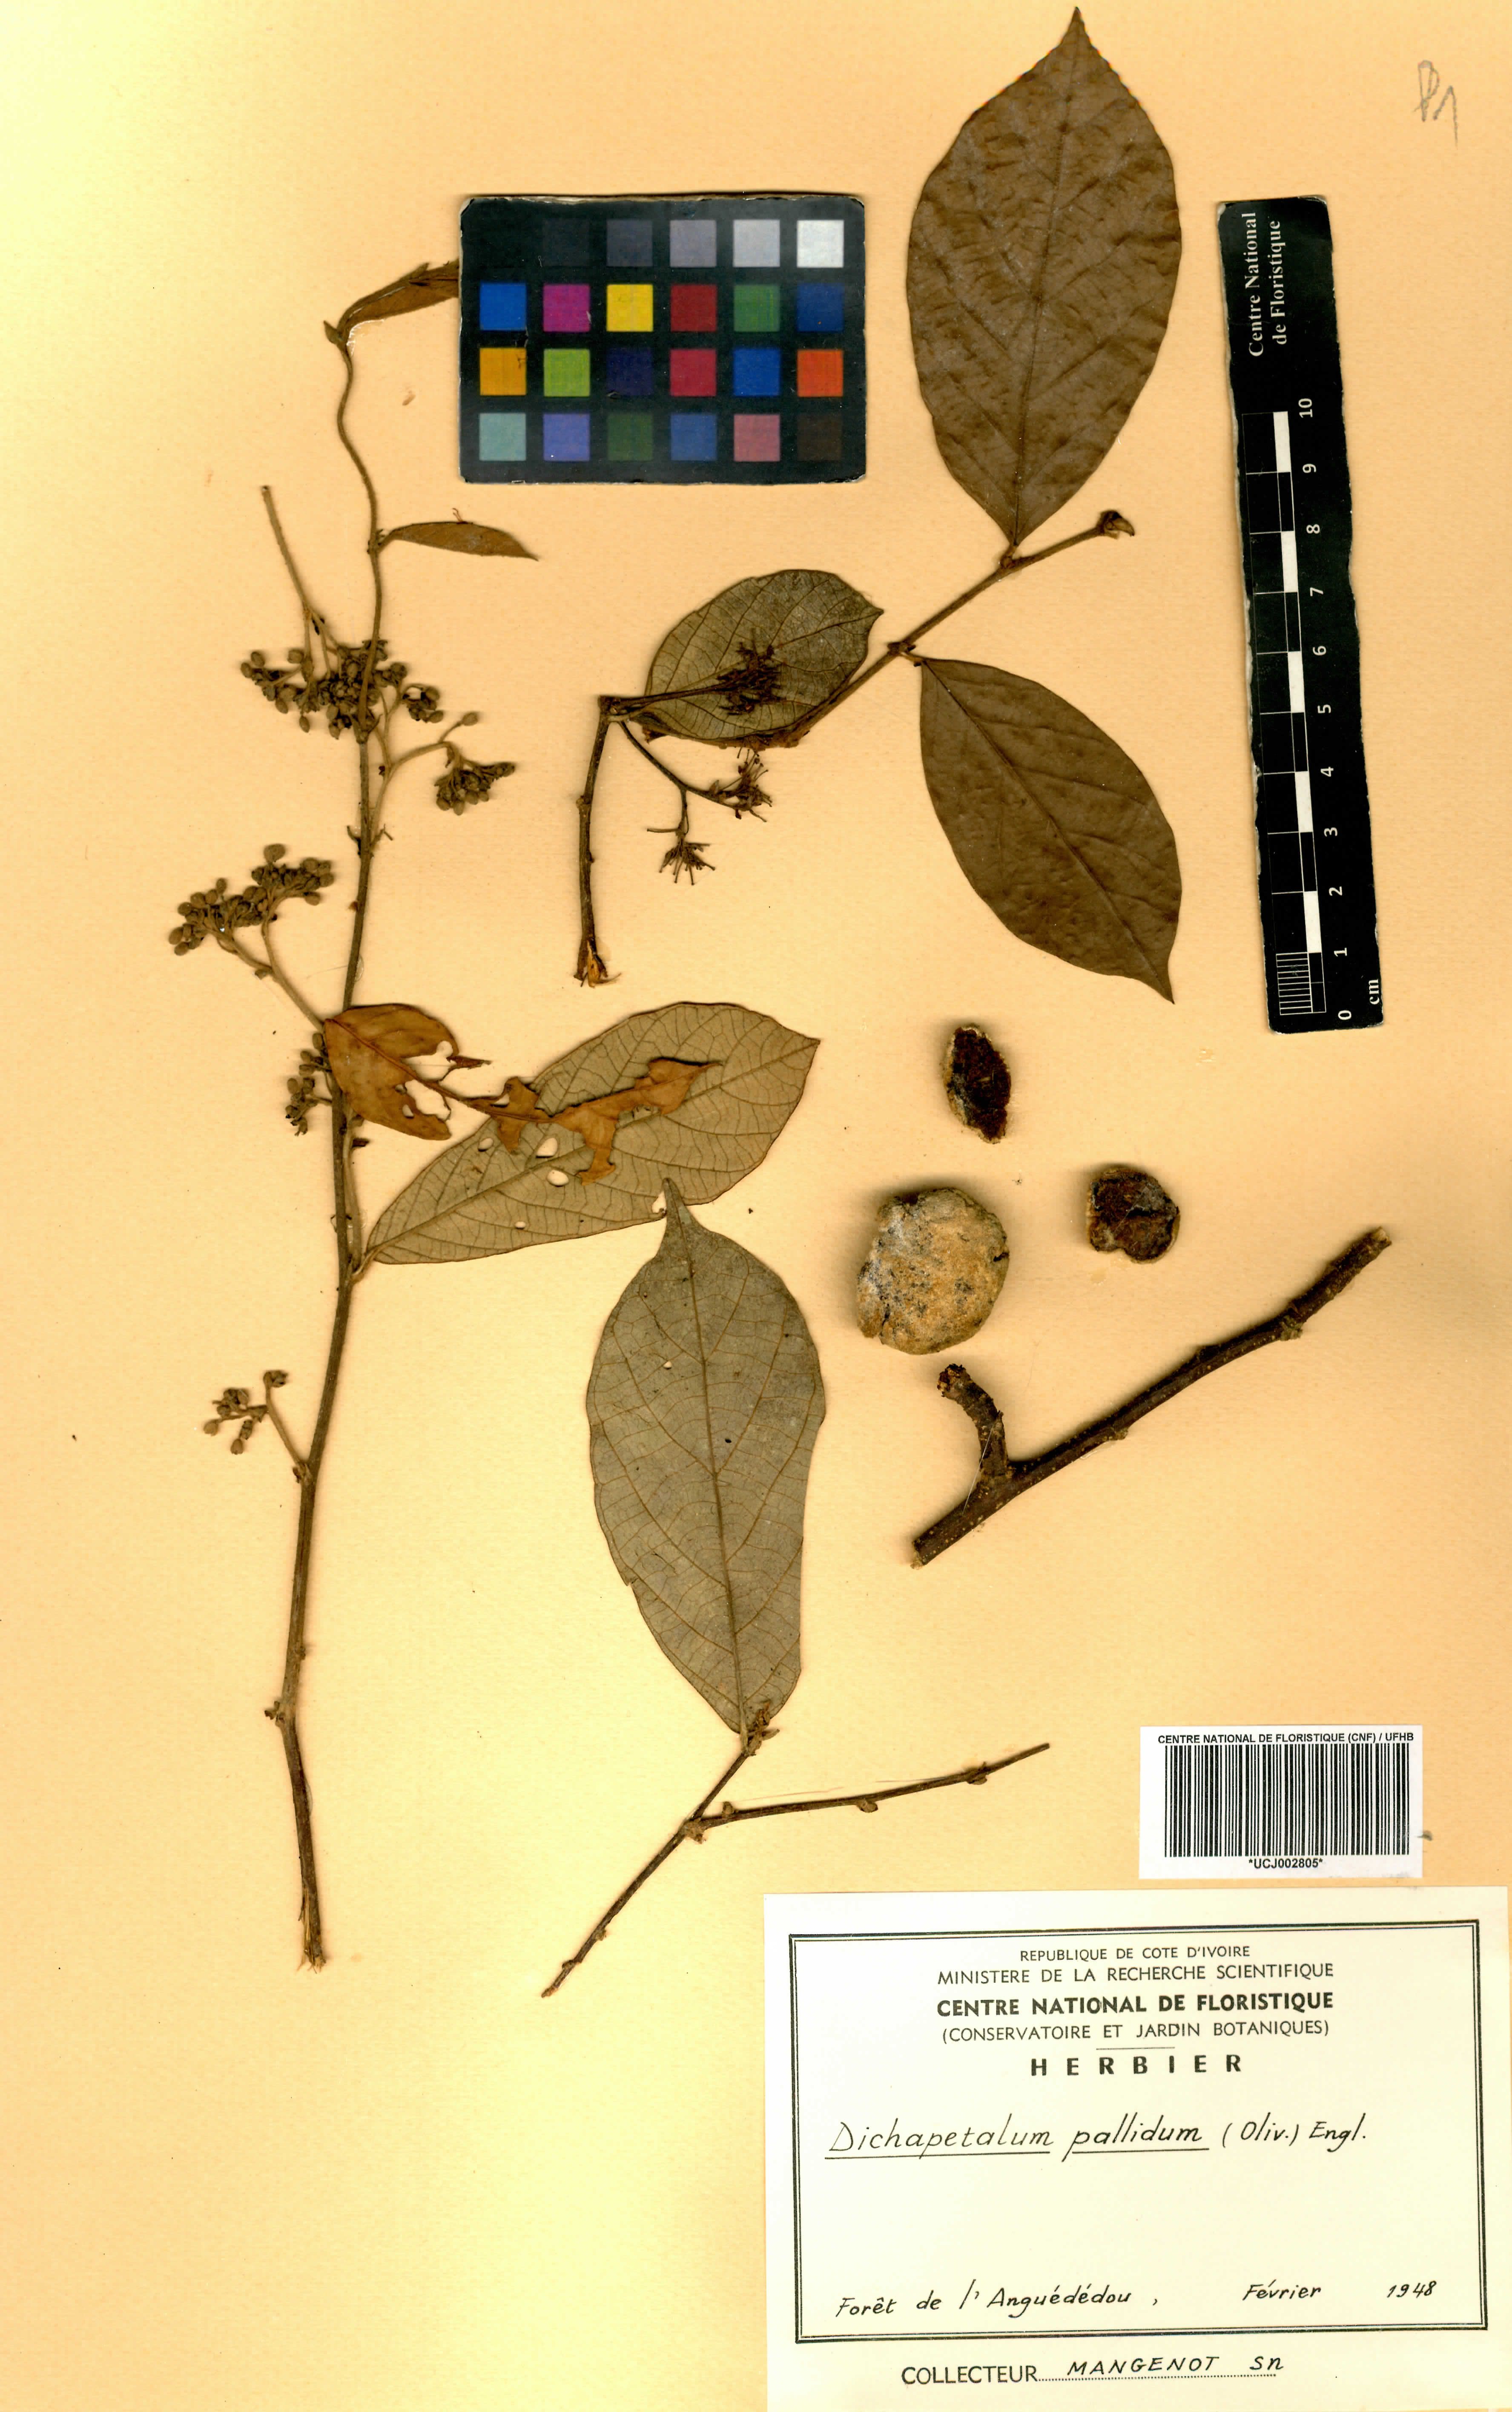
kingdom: Plantae
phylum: Tracheophyta
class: Magnoliopsida
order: Malpighiales
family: Dichapetalaceae
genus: Dichapetalum
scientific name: Dichapetalum pallidum
